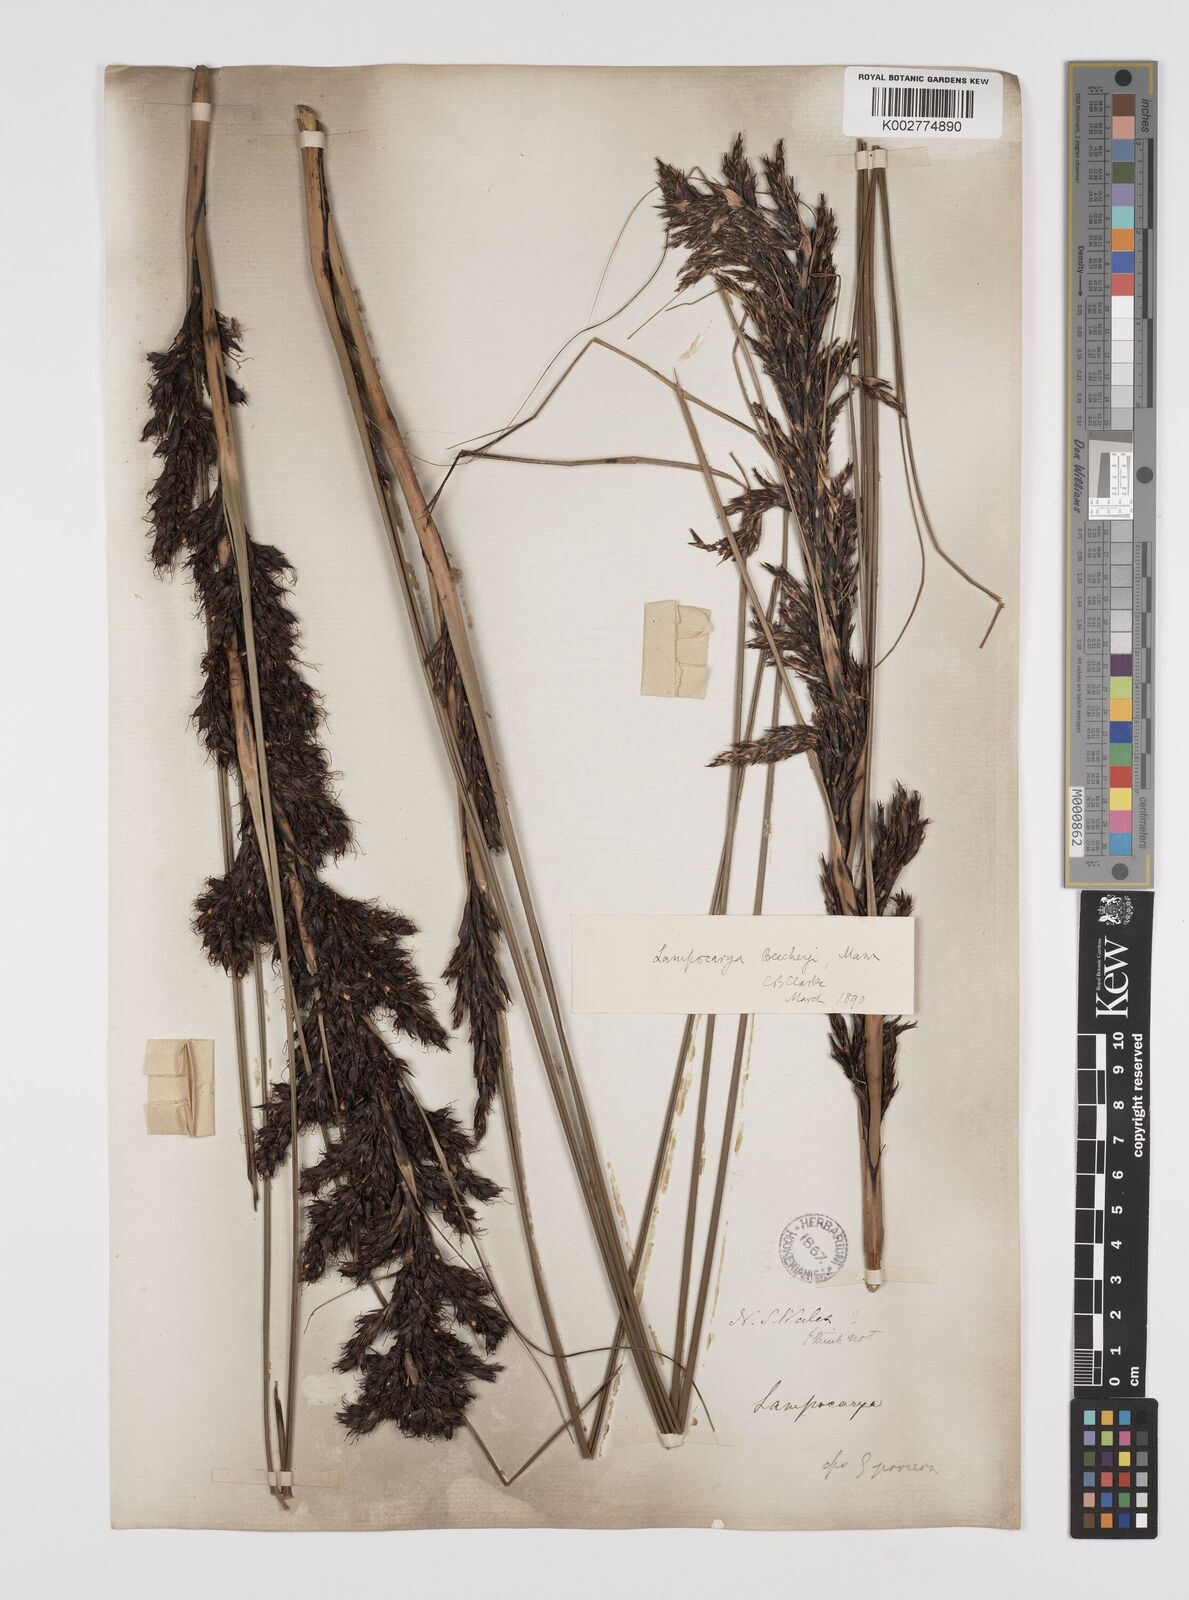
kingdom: Plantae
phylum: Tracheophyta
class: Liliopsida
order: Poales
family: Cyperaceae
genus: Gahnia
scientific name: Gahnia beecheyi
